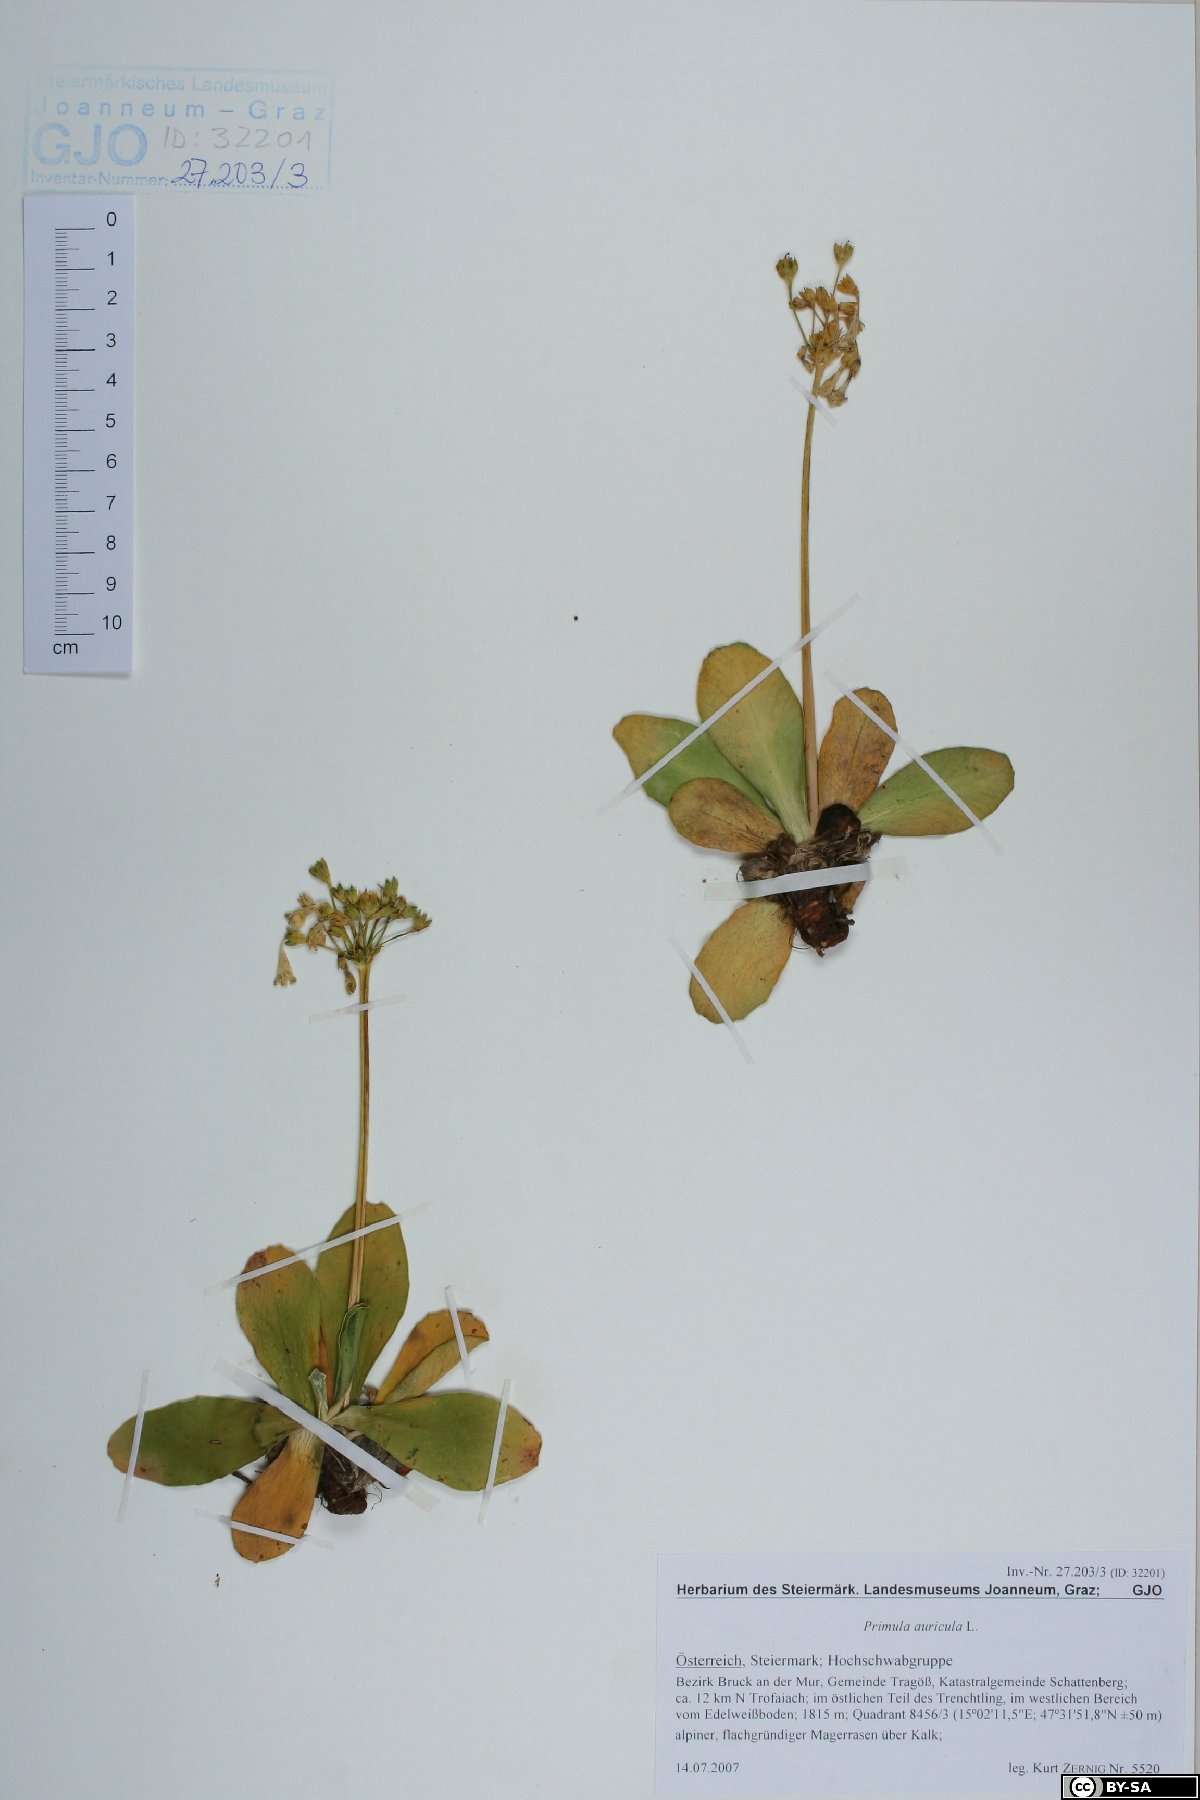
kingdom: Plantae
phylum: Tracheophyta
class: Magnoliopsida
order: Ericales
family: Primulaceae
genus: Primula
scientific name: Primula auricula
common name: Auricula
